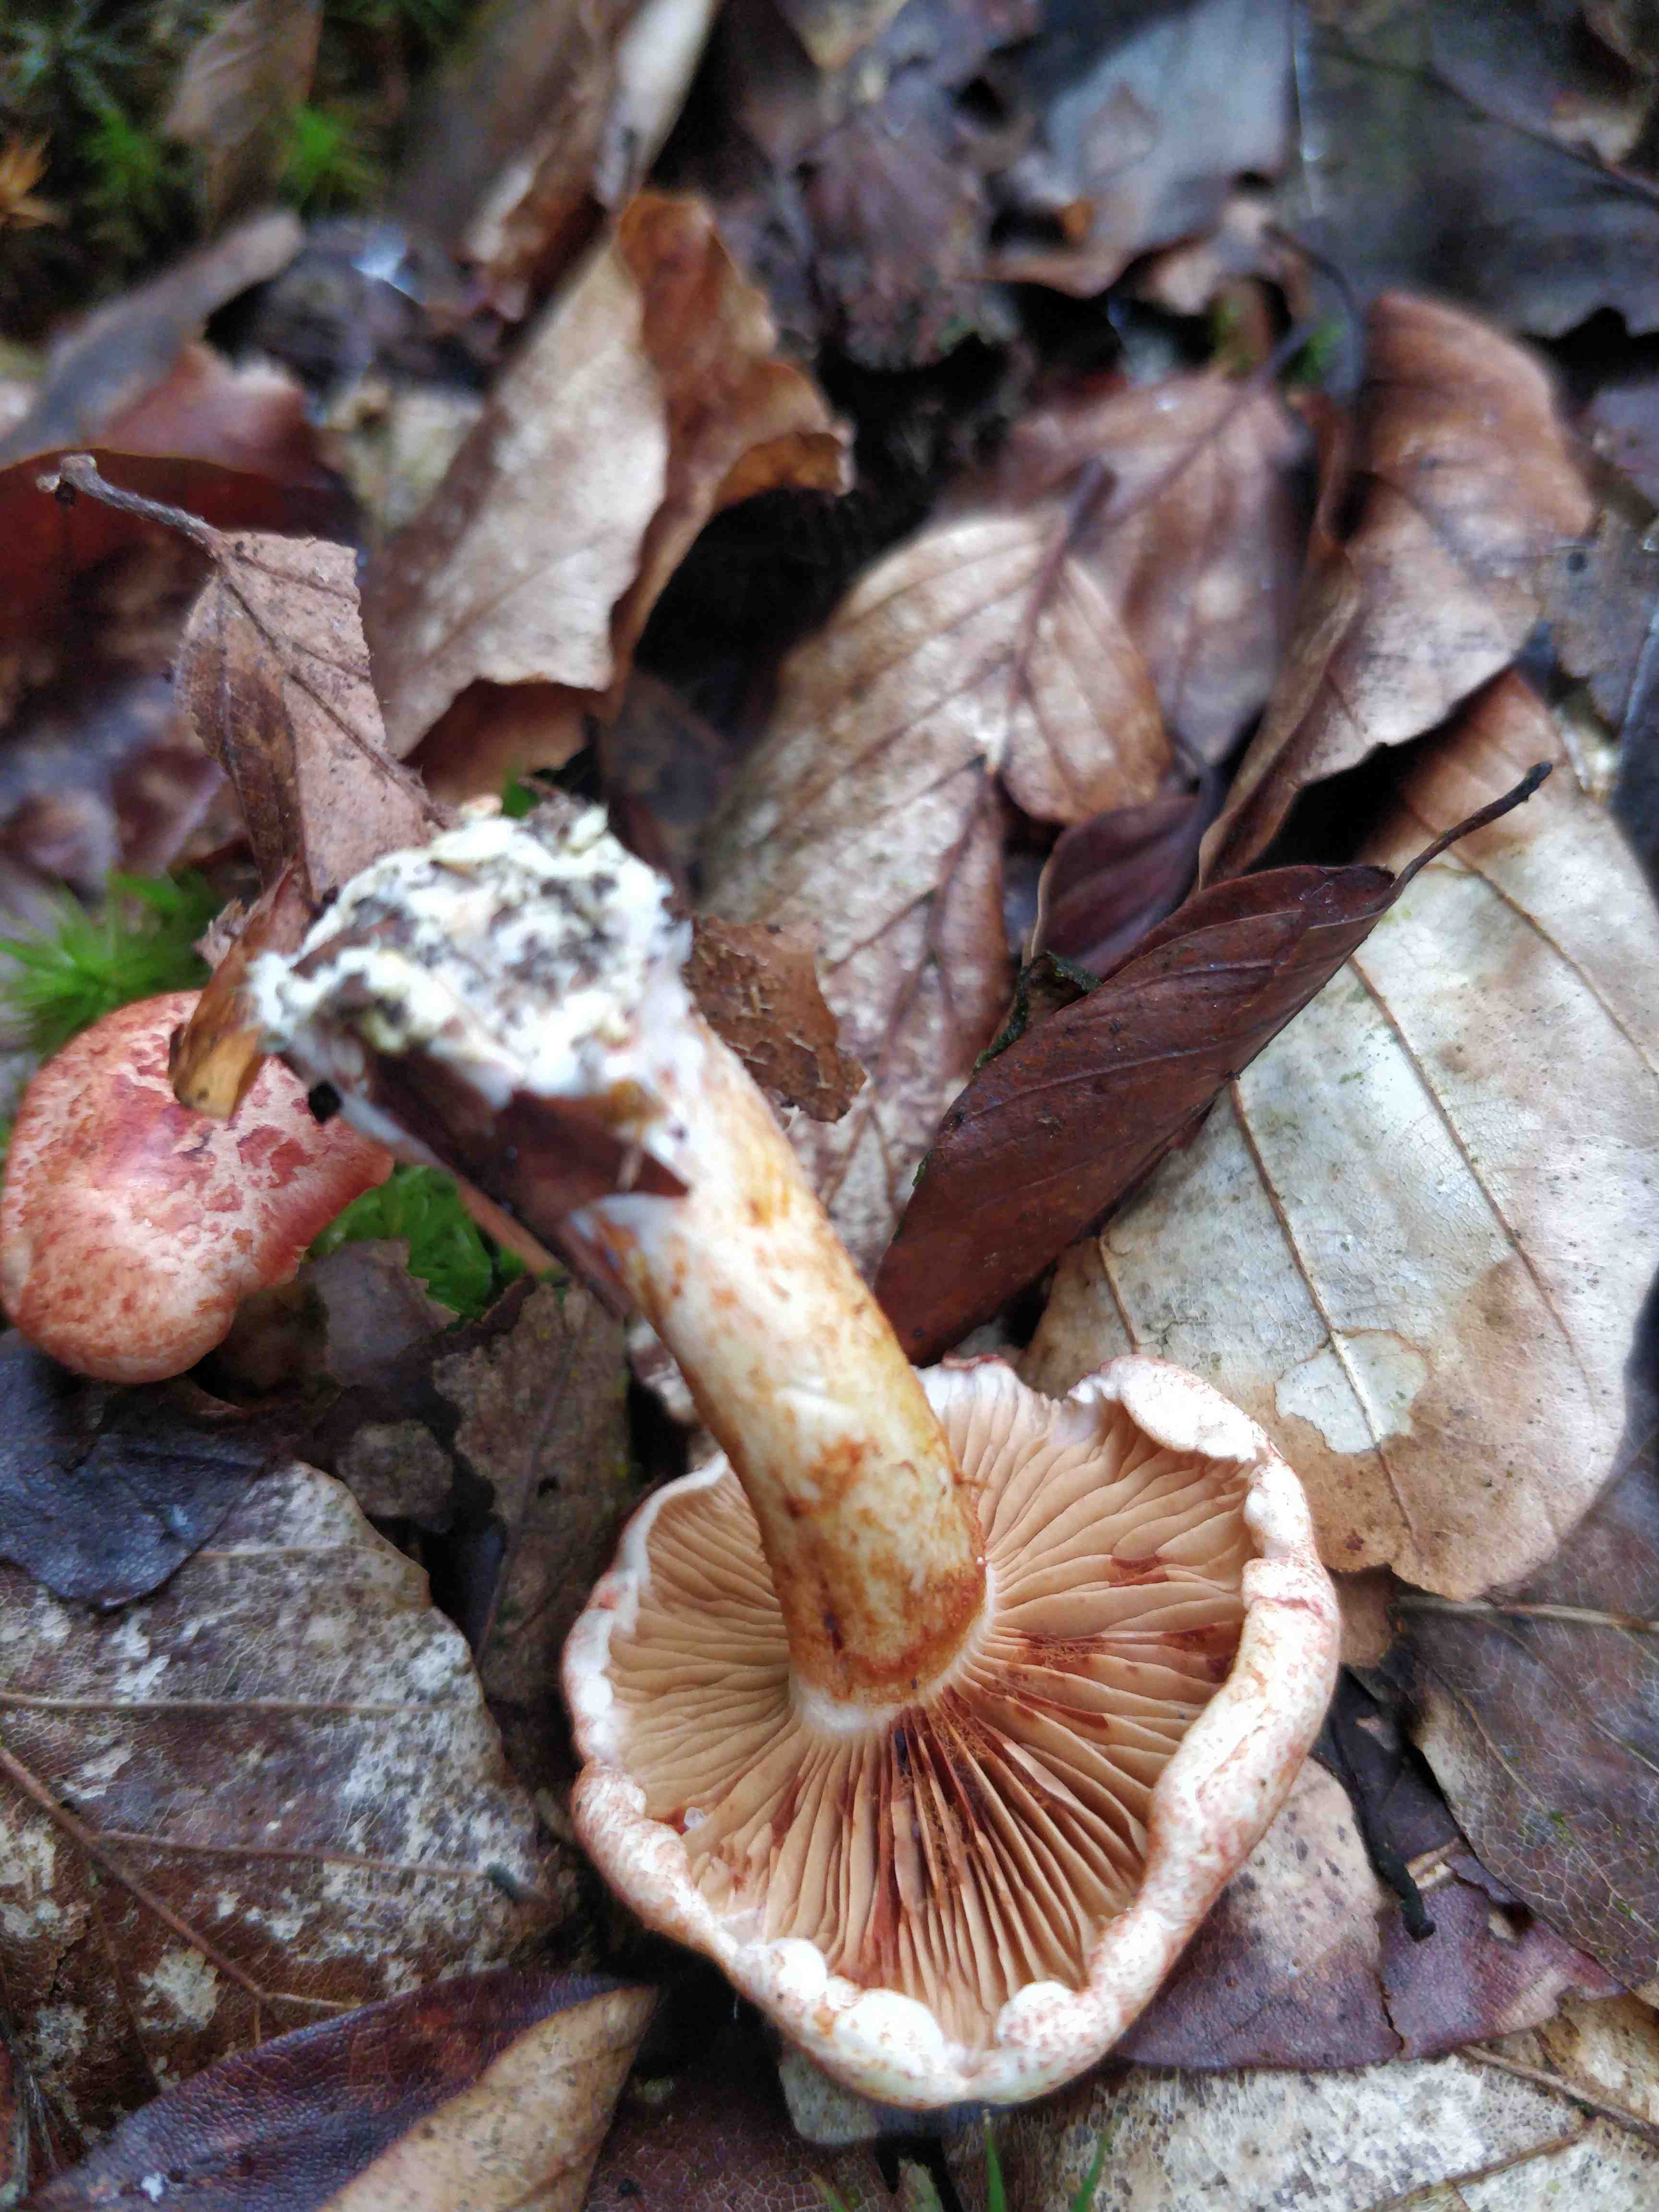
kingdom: Fungi
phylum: Basidiomycota
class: Agaricomycetes
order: Agaricales
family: Cortinariaceae
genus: Cortinarius
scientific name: Cortinarius bolaris
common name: cinnoberskællet slørhat
